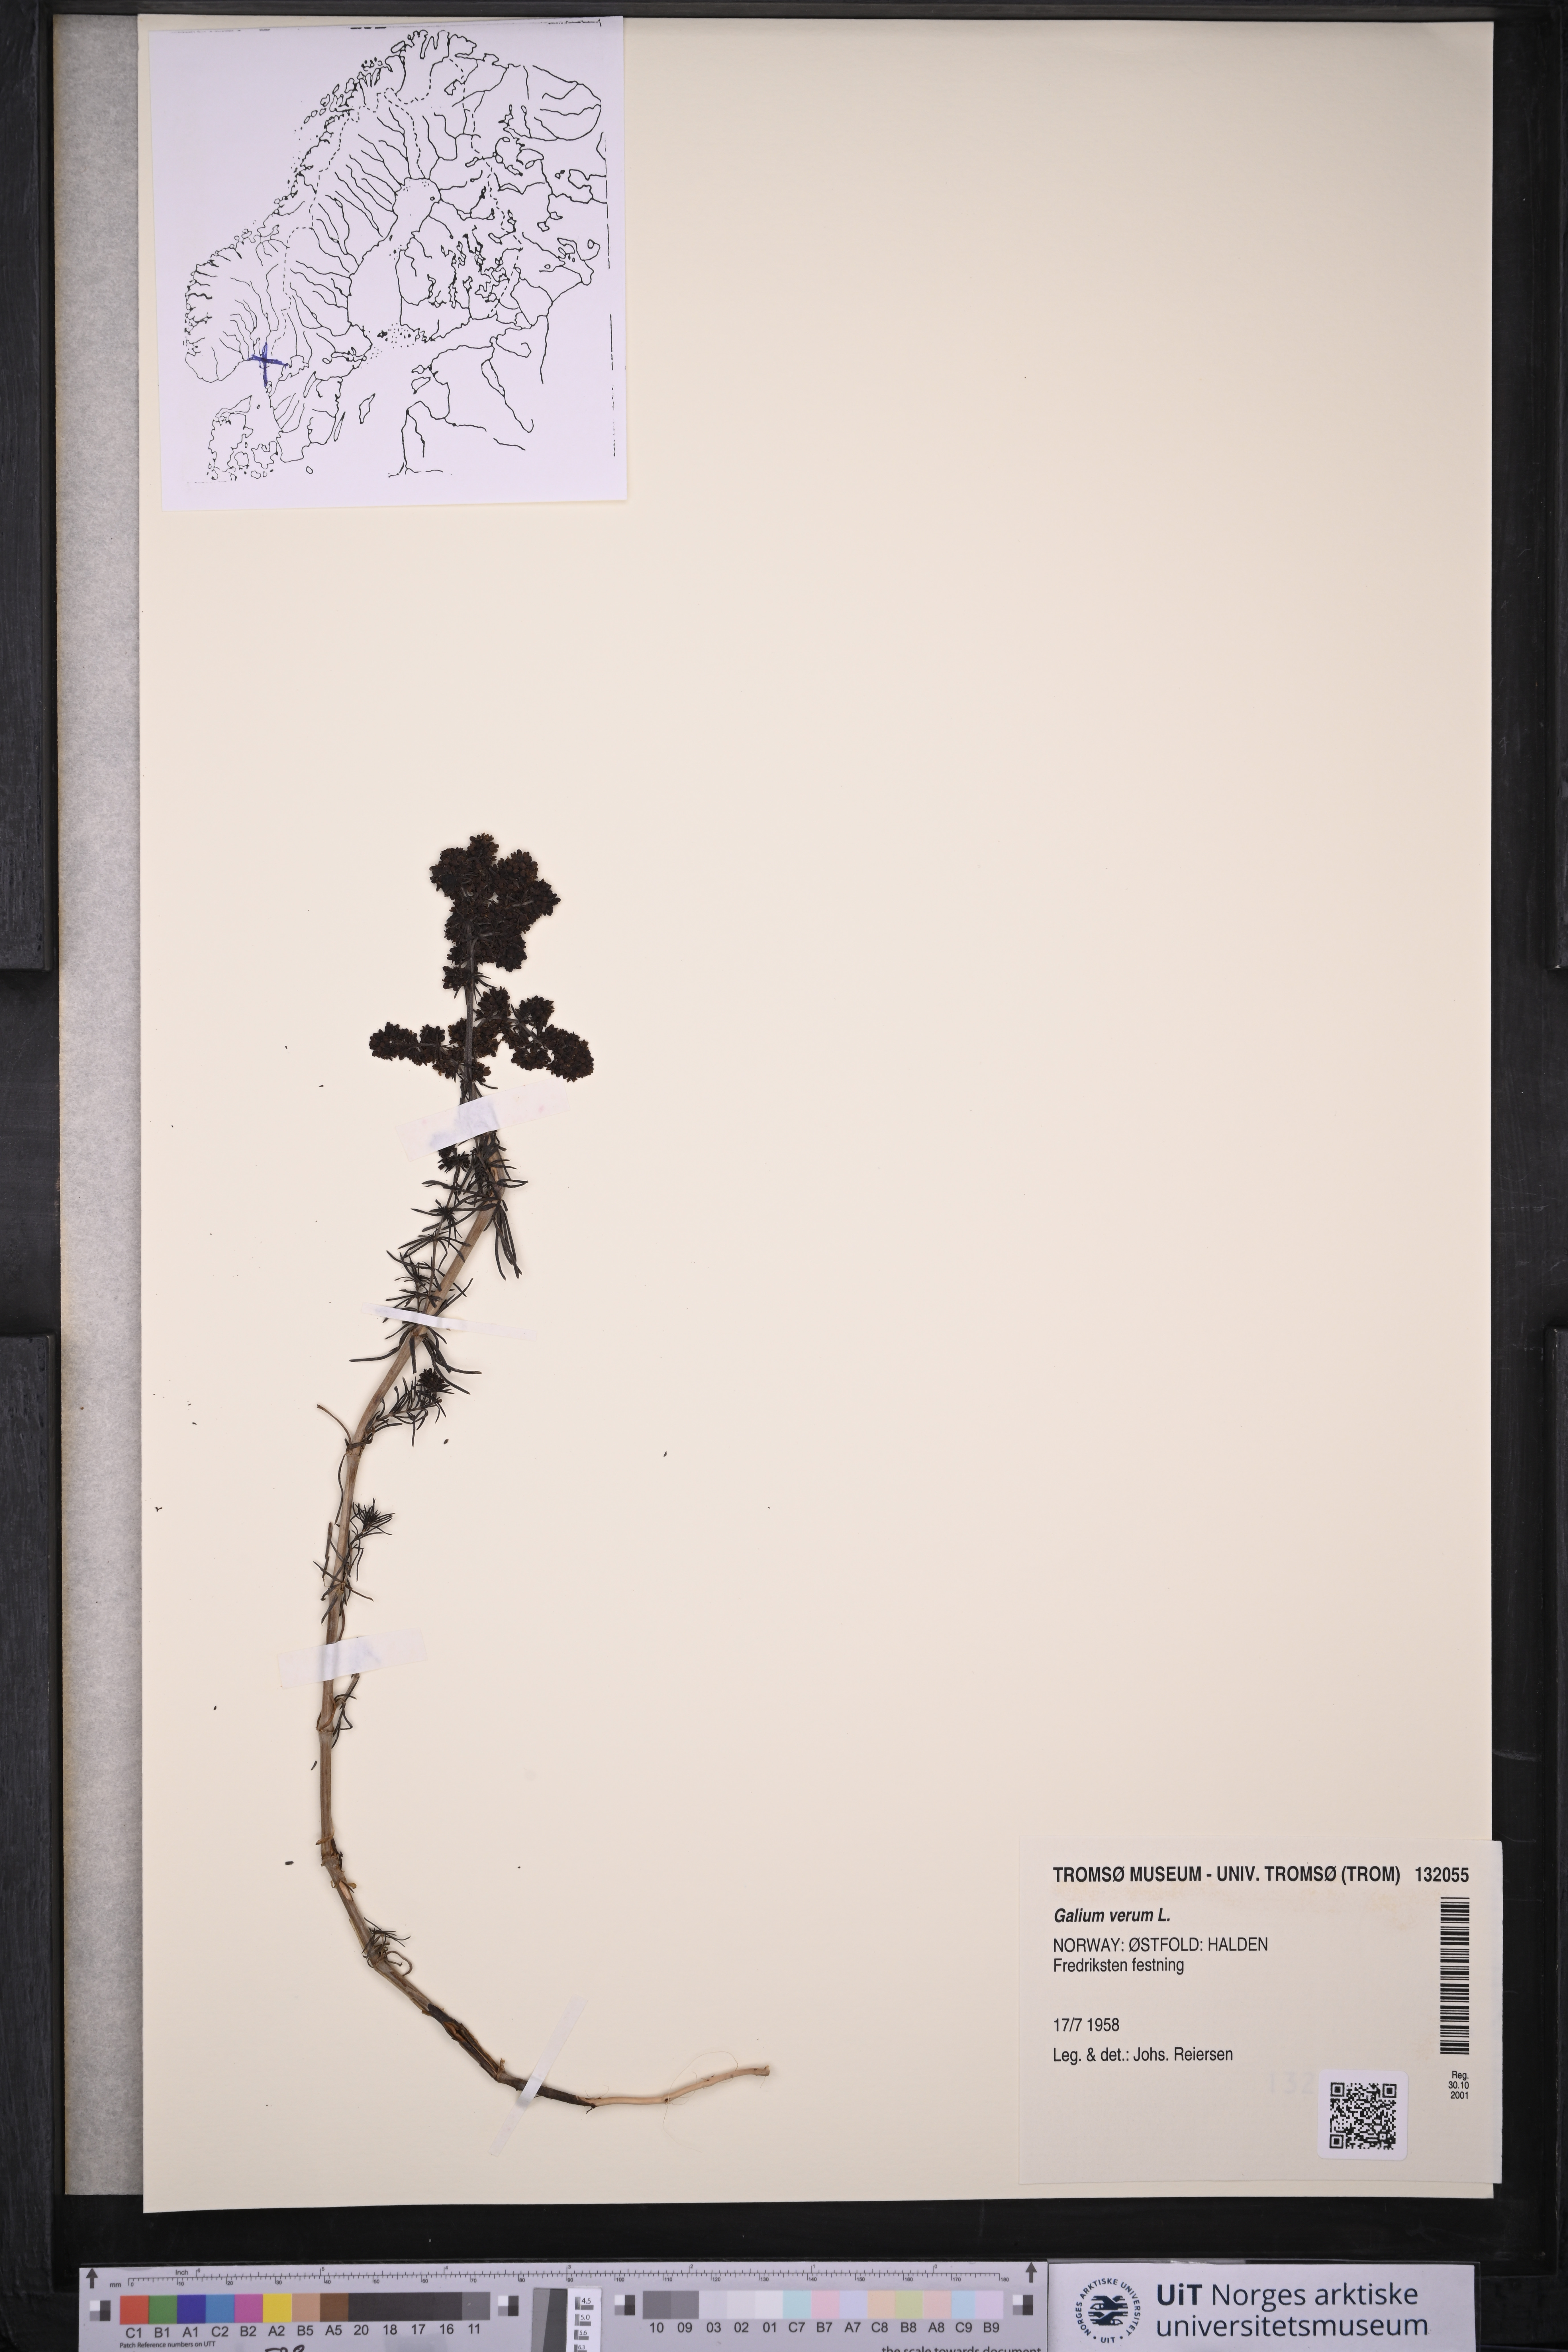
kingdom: Plantae
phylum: Tracheophyta
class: Magnoliopsida
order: Gentianales
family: Rubiaceae
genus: Galium
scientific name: Galium verum
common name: Lady's bedstraw
